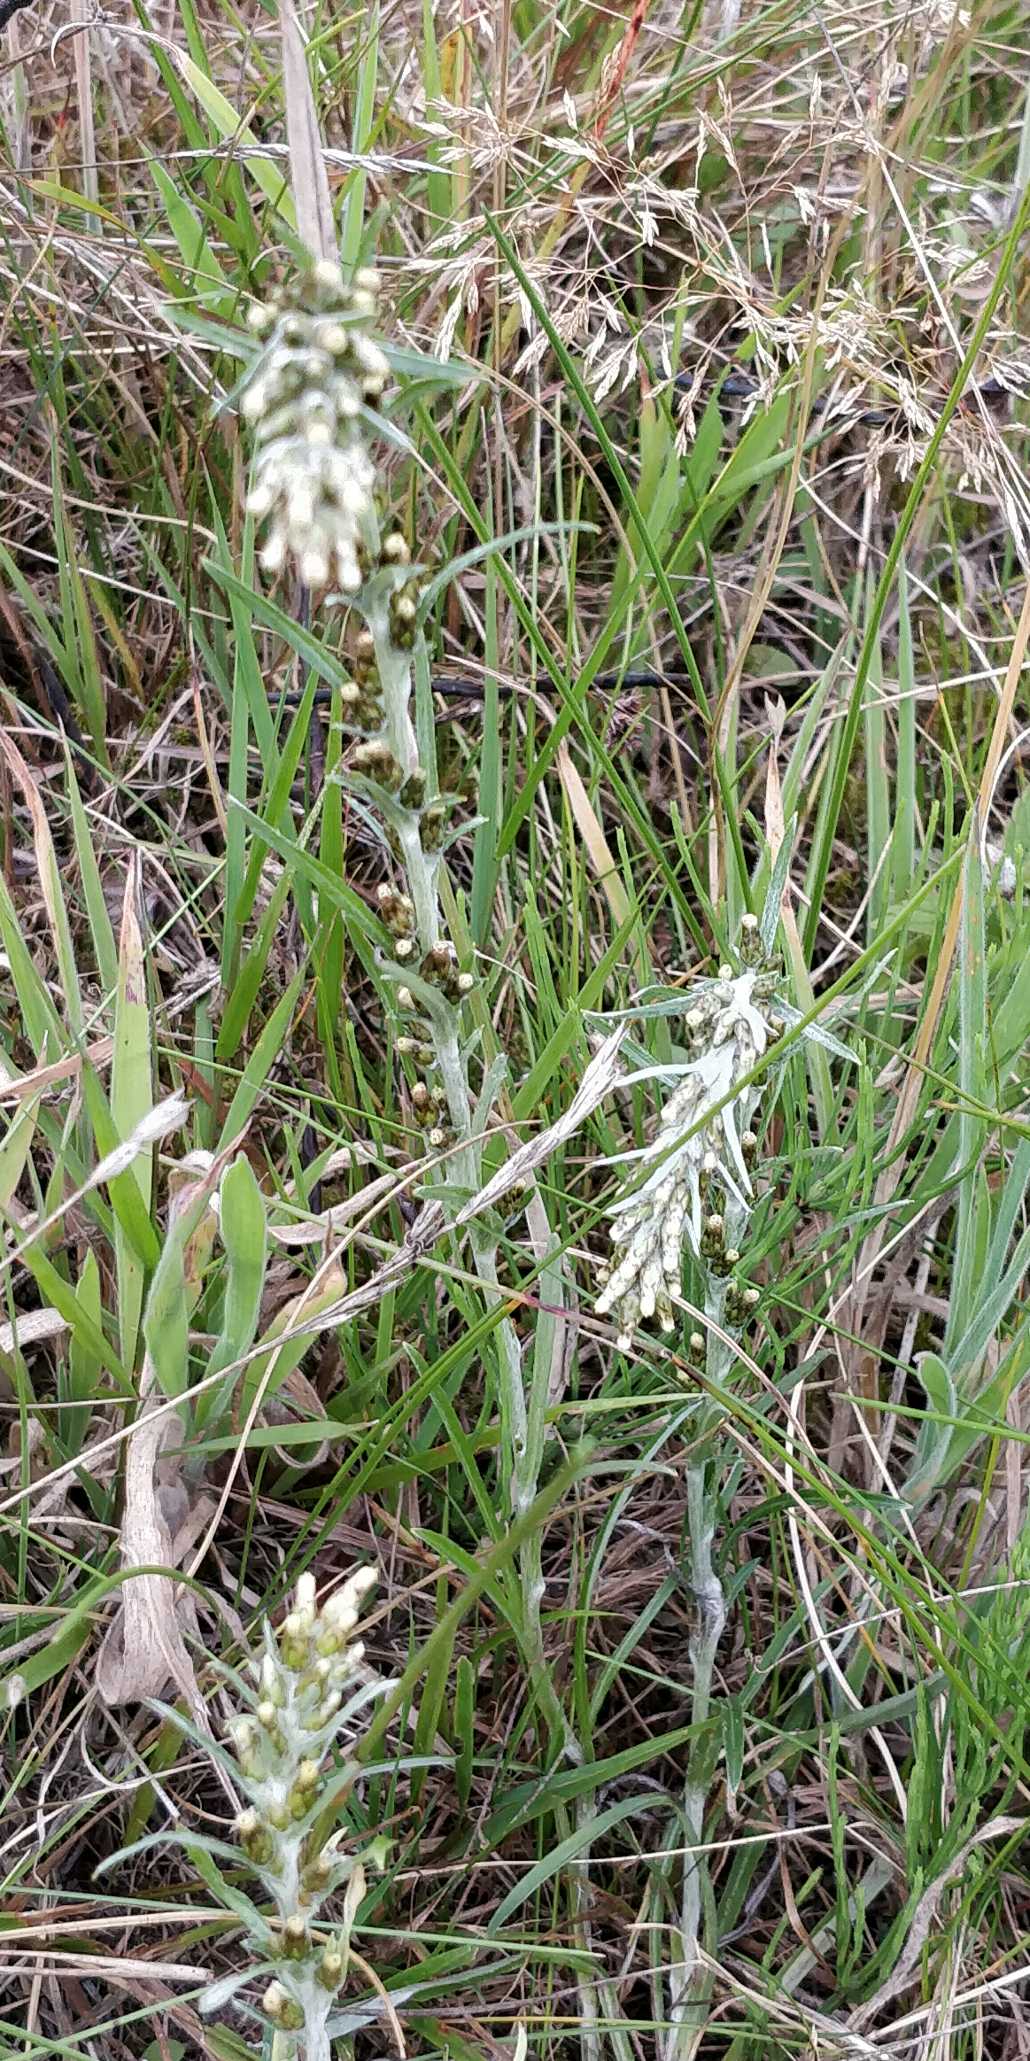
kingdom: Plantae
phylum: Tracheophyta
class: Magnoliopsida
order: Asterales
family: Asteraceae
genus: Omalotheca
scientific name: Omalotheca sylvatica
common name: Rank evighedsblomst
